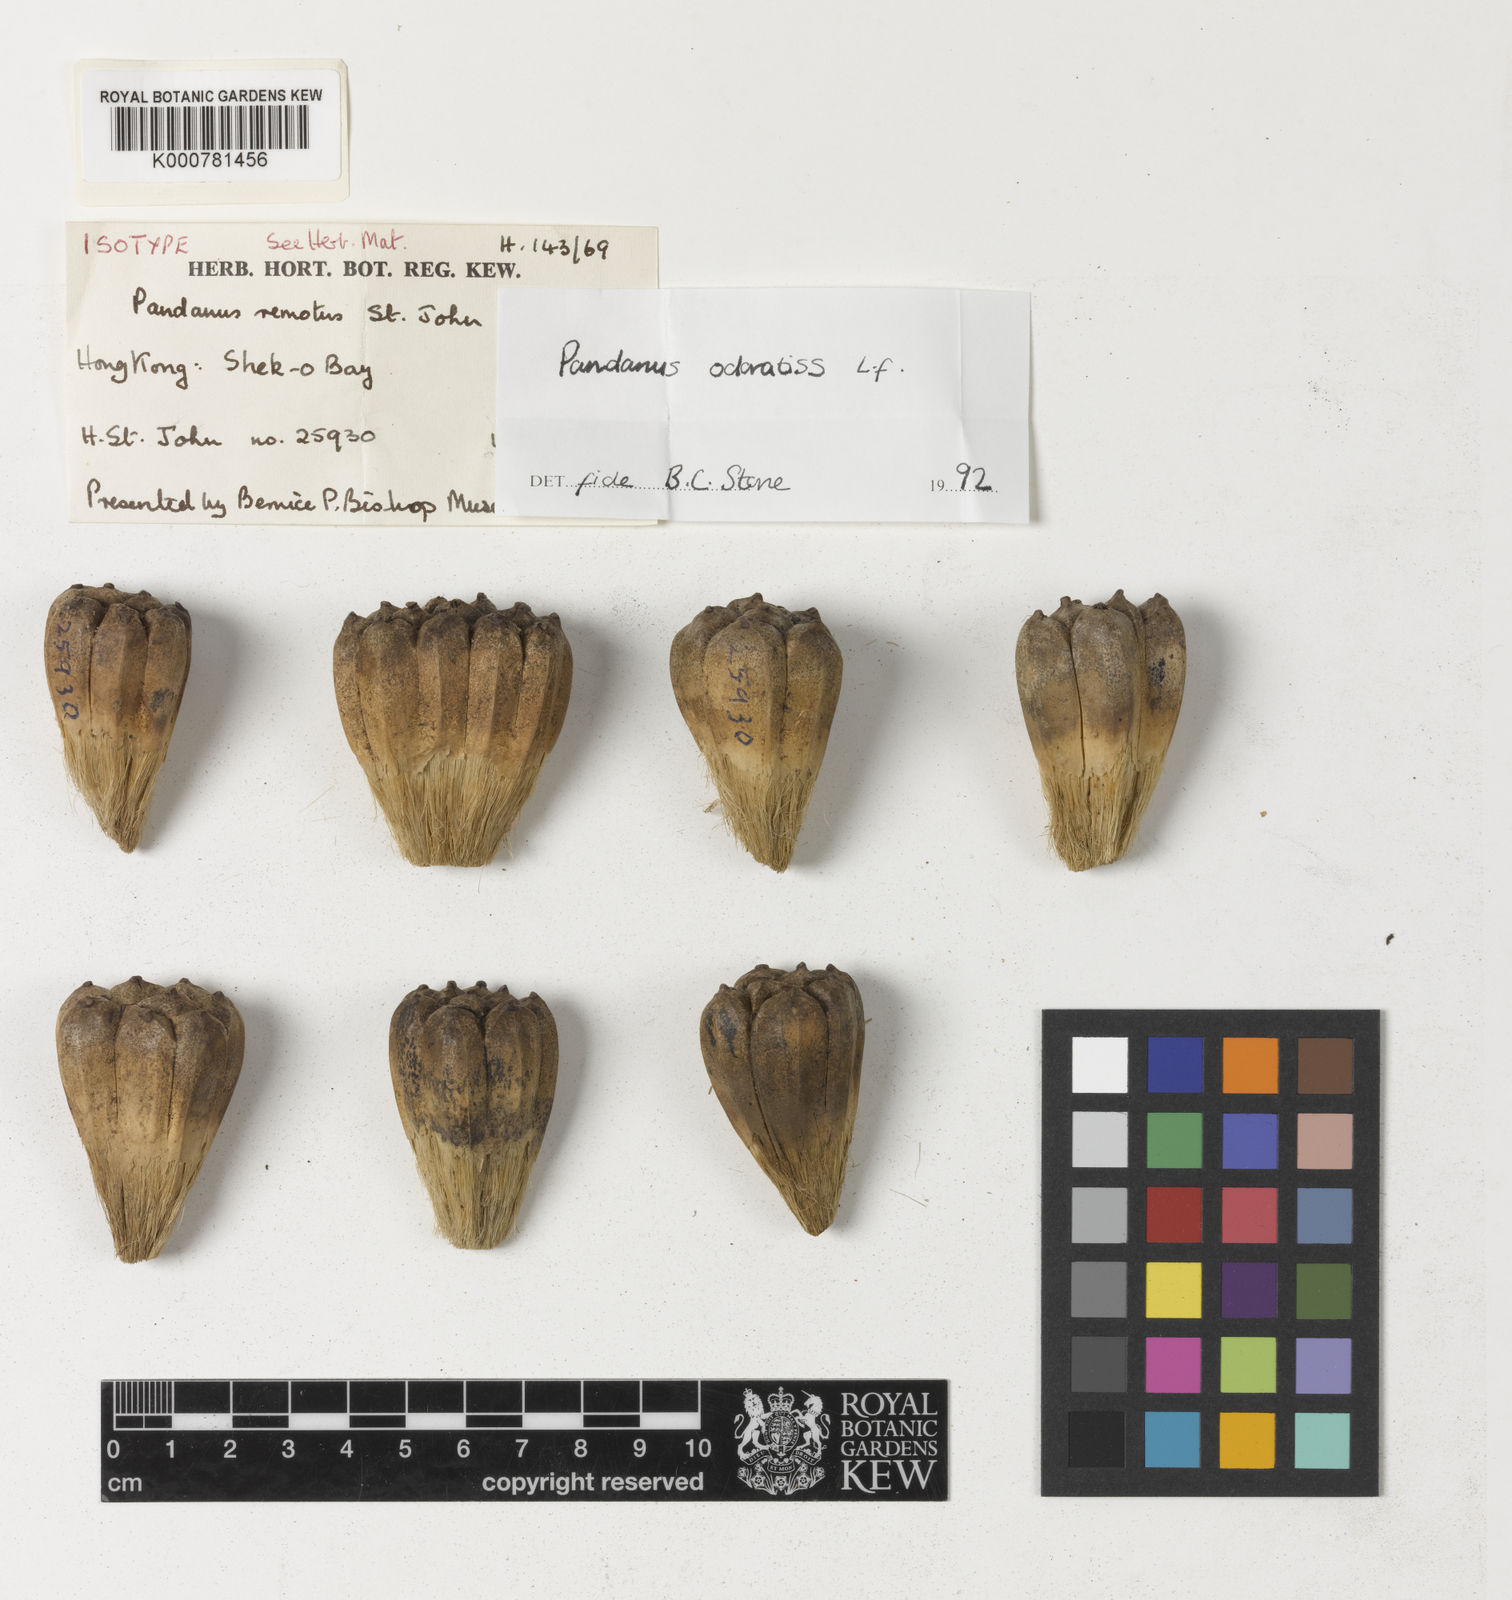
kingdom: Plantae
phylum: Tracheophyta
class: Liliopsida
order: Pandanales
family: Pandanaceae
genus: Pandanus
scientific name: Pandanus odorifer
